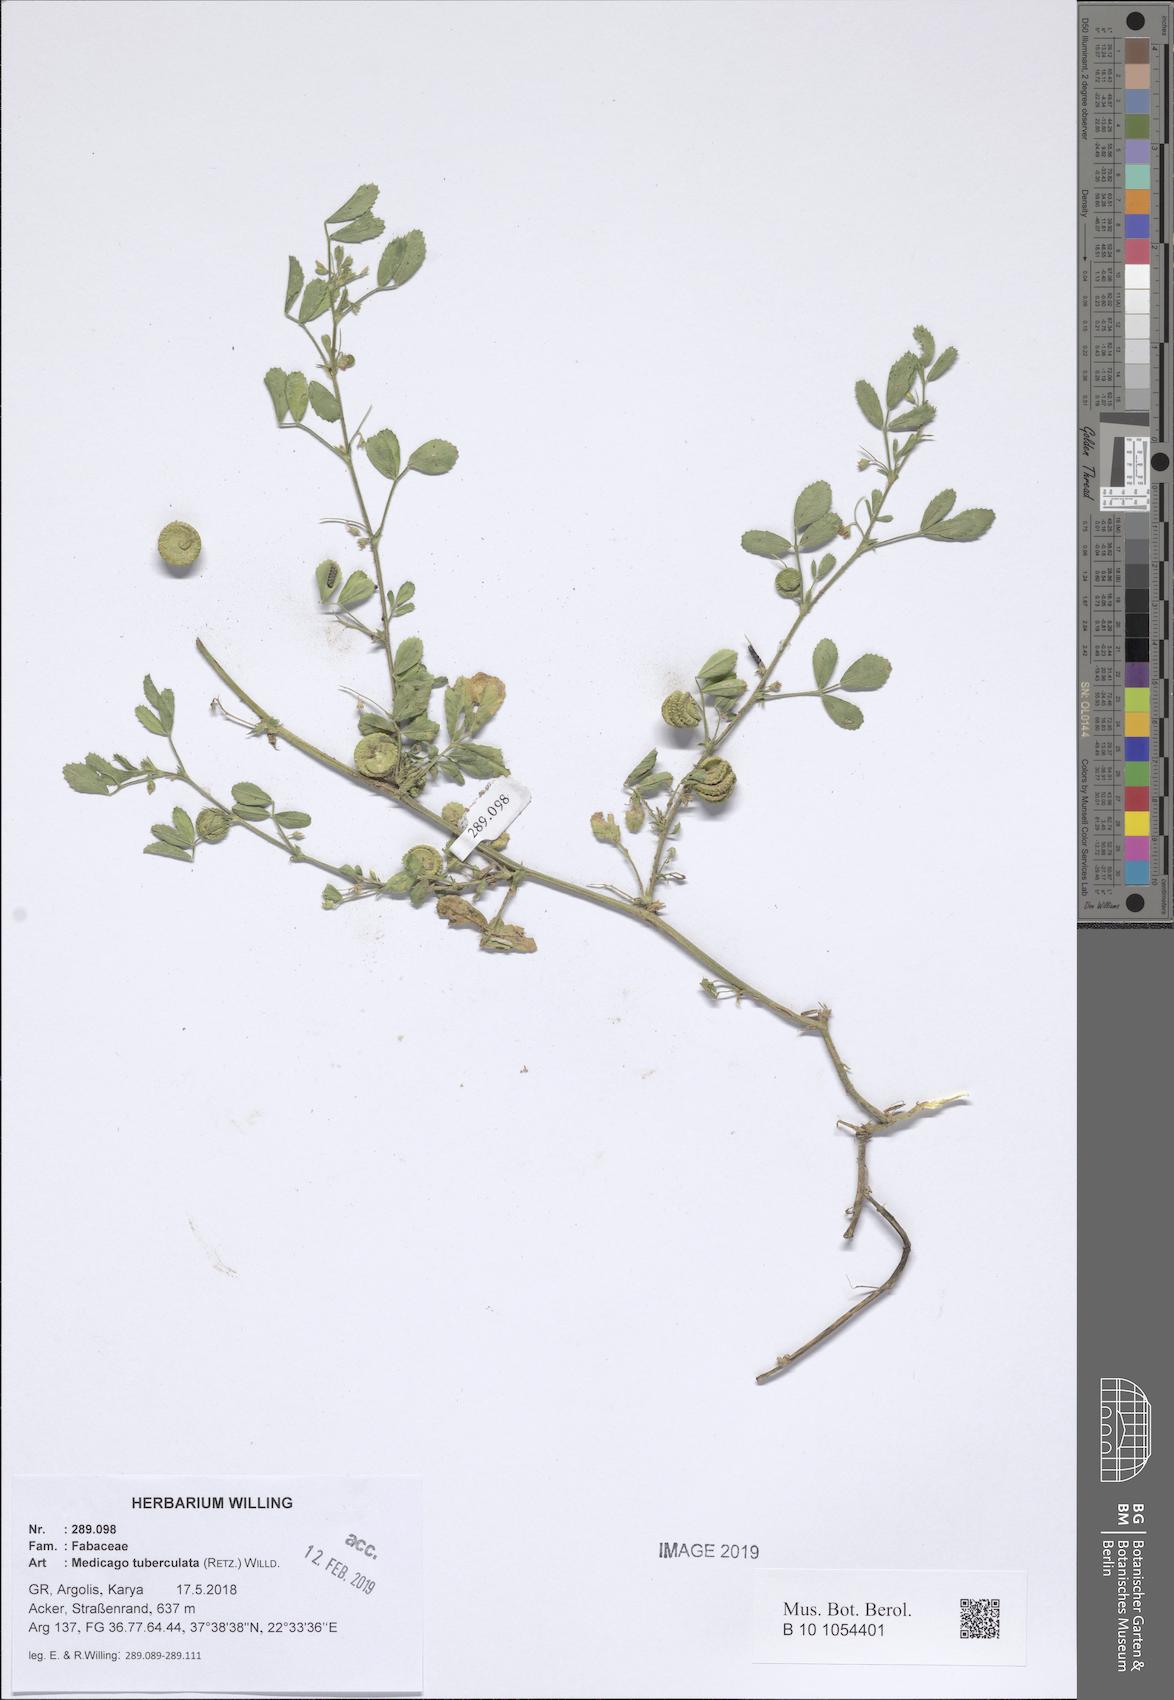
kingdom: Plantae
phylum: Tracheophyta
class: Magnoliopsida
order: Fabales
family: Fabaceae
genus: Medicago
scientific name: Medicago turbinata
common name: Southern medick
